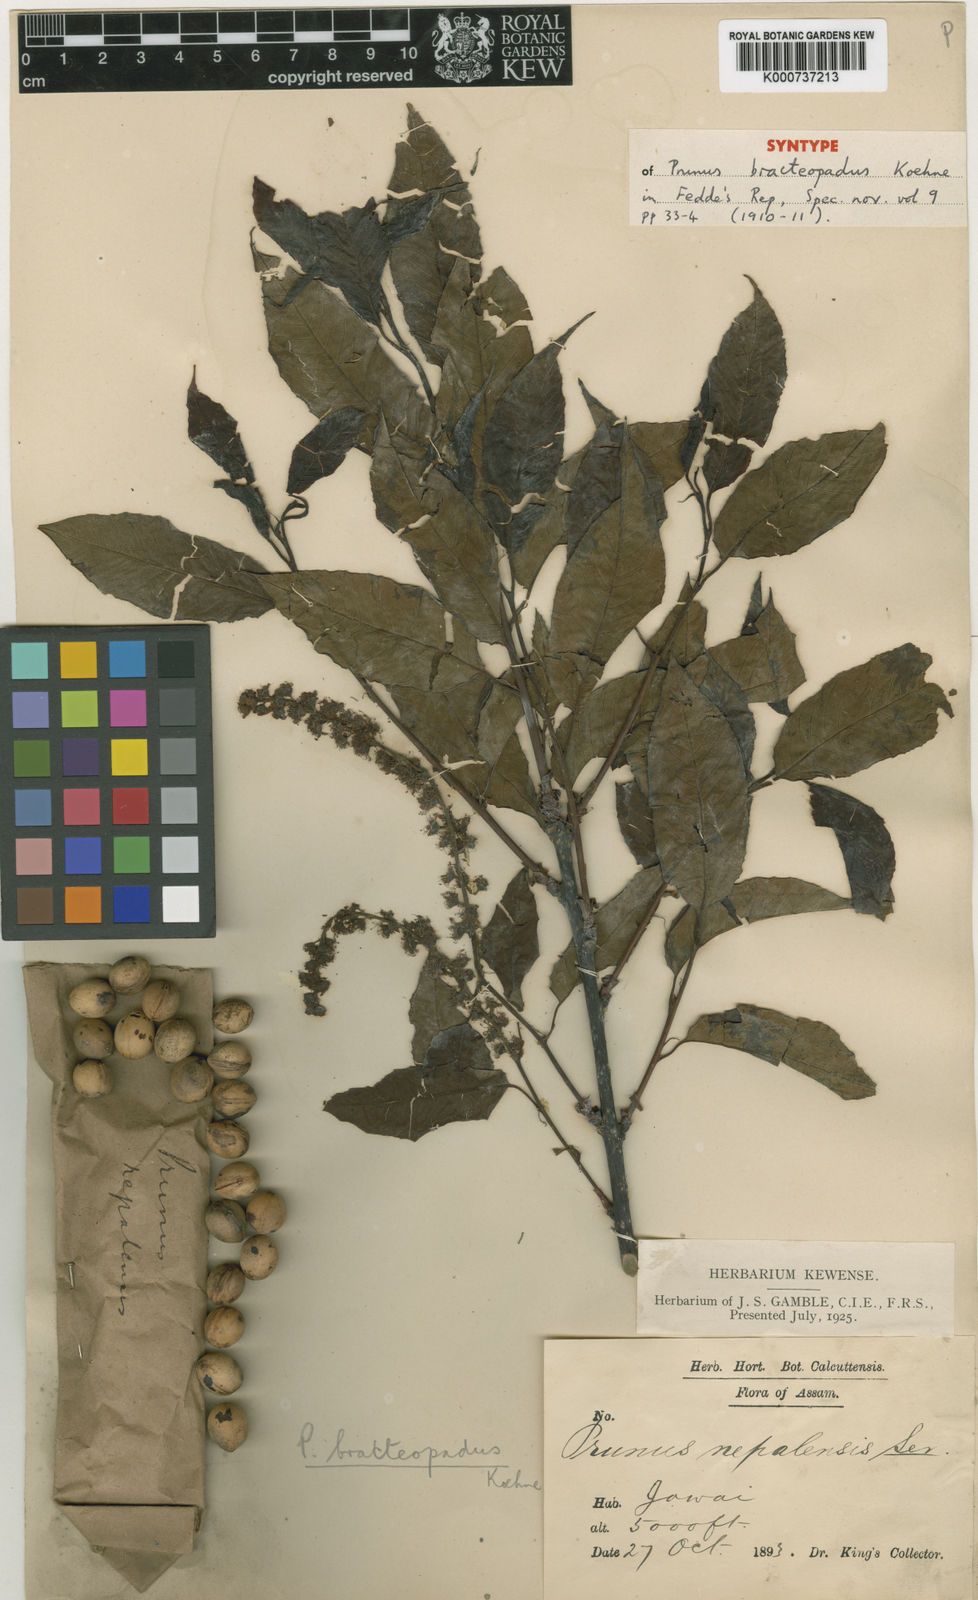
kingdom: Plantae
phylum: Tracheophyta
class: Magnoliopsida
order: Rosales
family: Rosaceae
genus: Prunus
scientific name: Prunus bracteopadus
